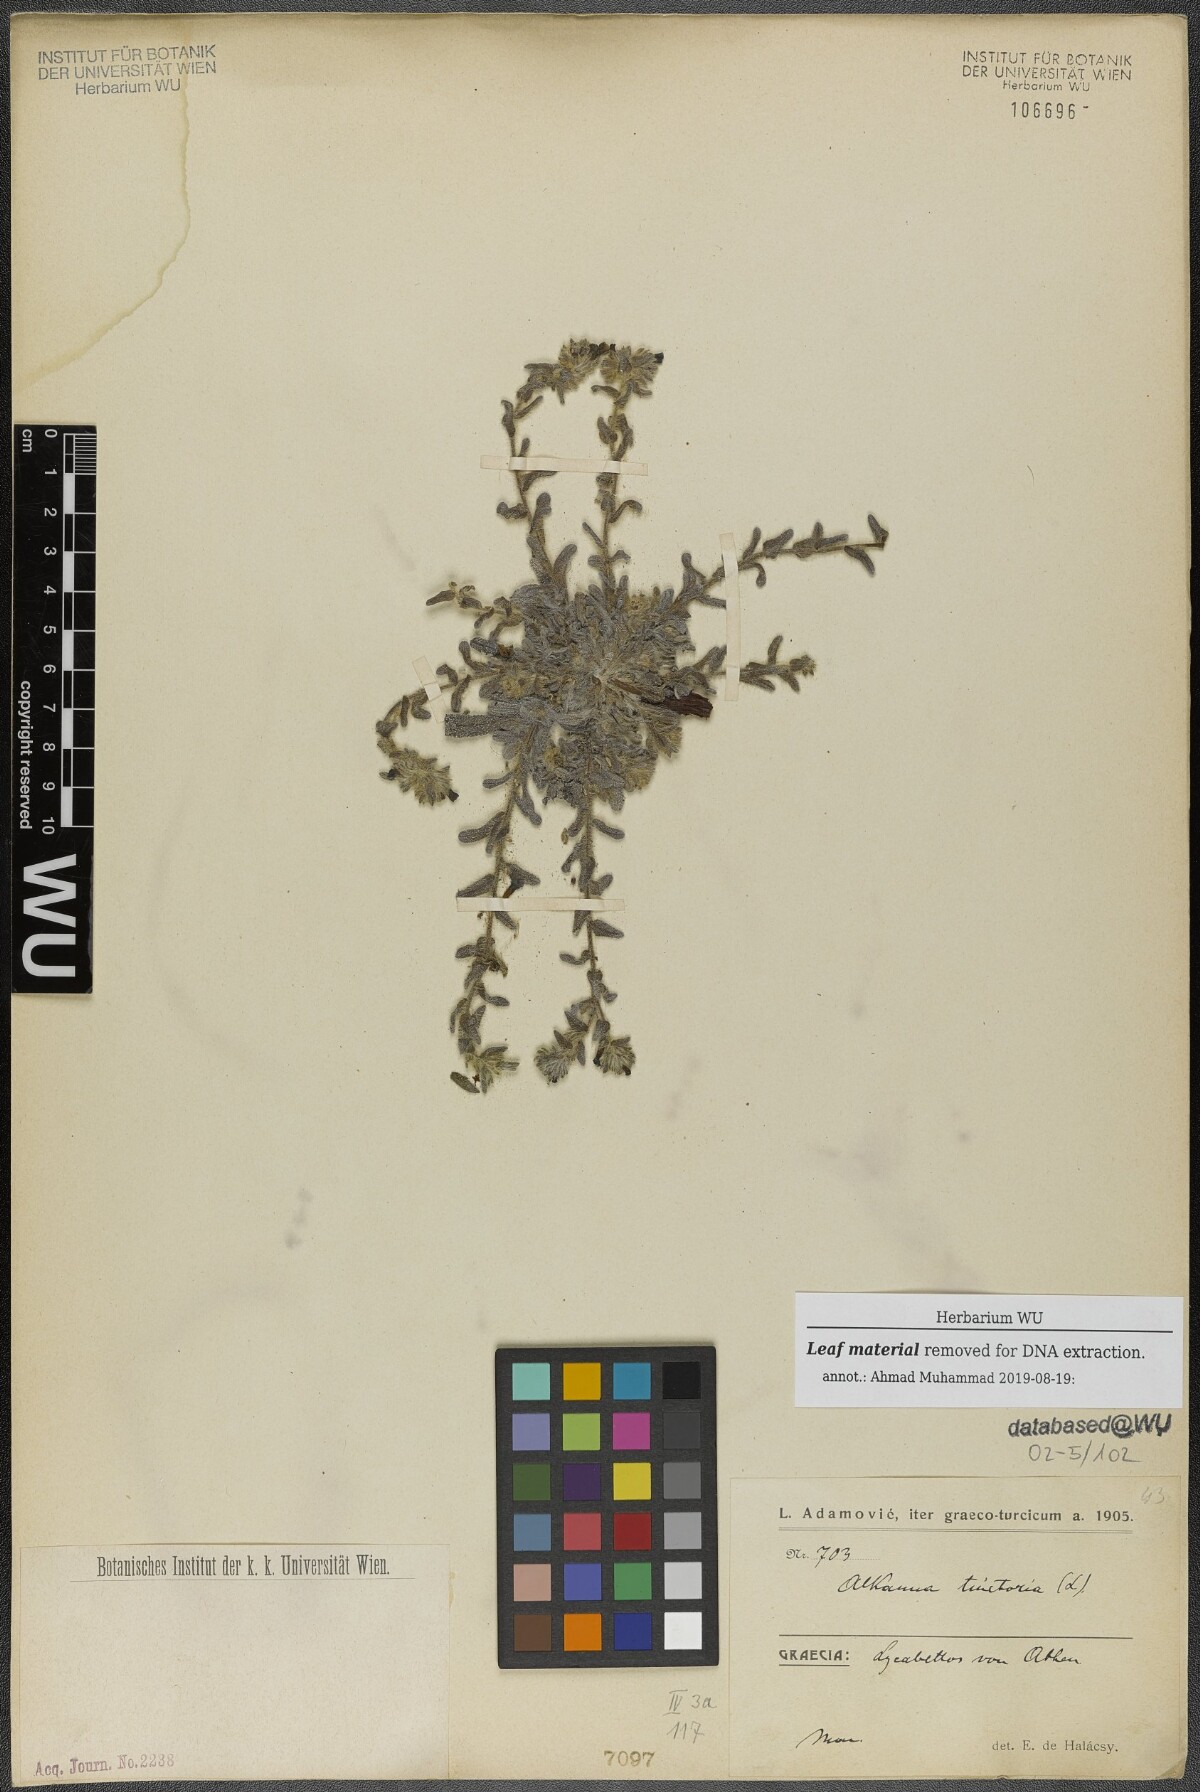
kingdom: Plantae
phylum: Tracheophyta
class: Magnoliopsida
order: Boraginales
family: Boraginaceae
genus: Alkanna
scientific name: Alkanna tinctoria
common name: Dyer's-alkanet
